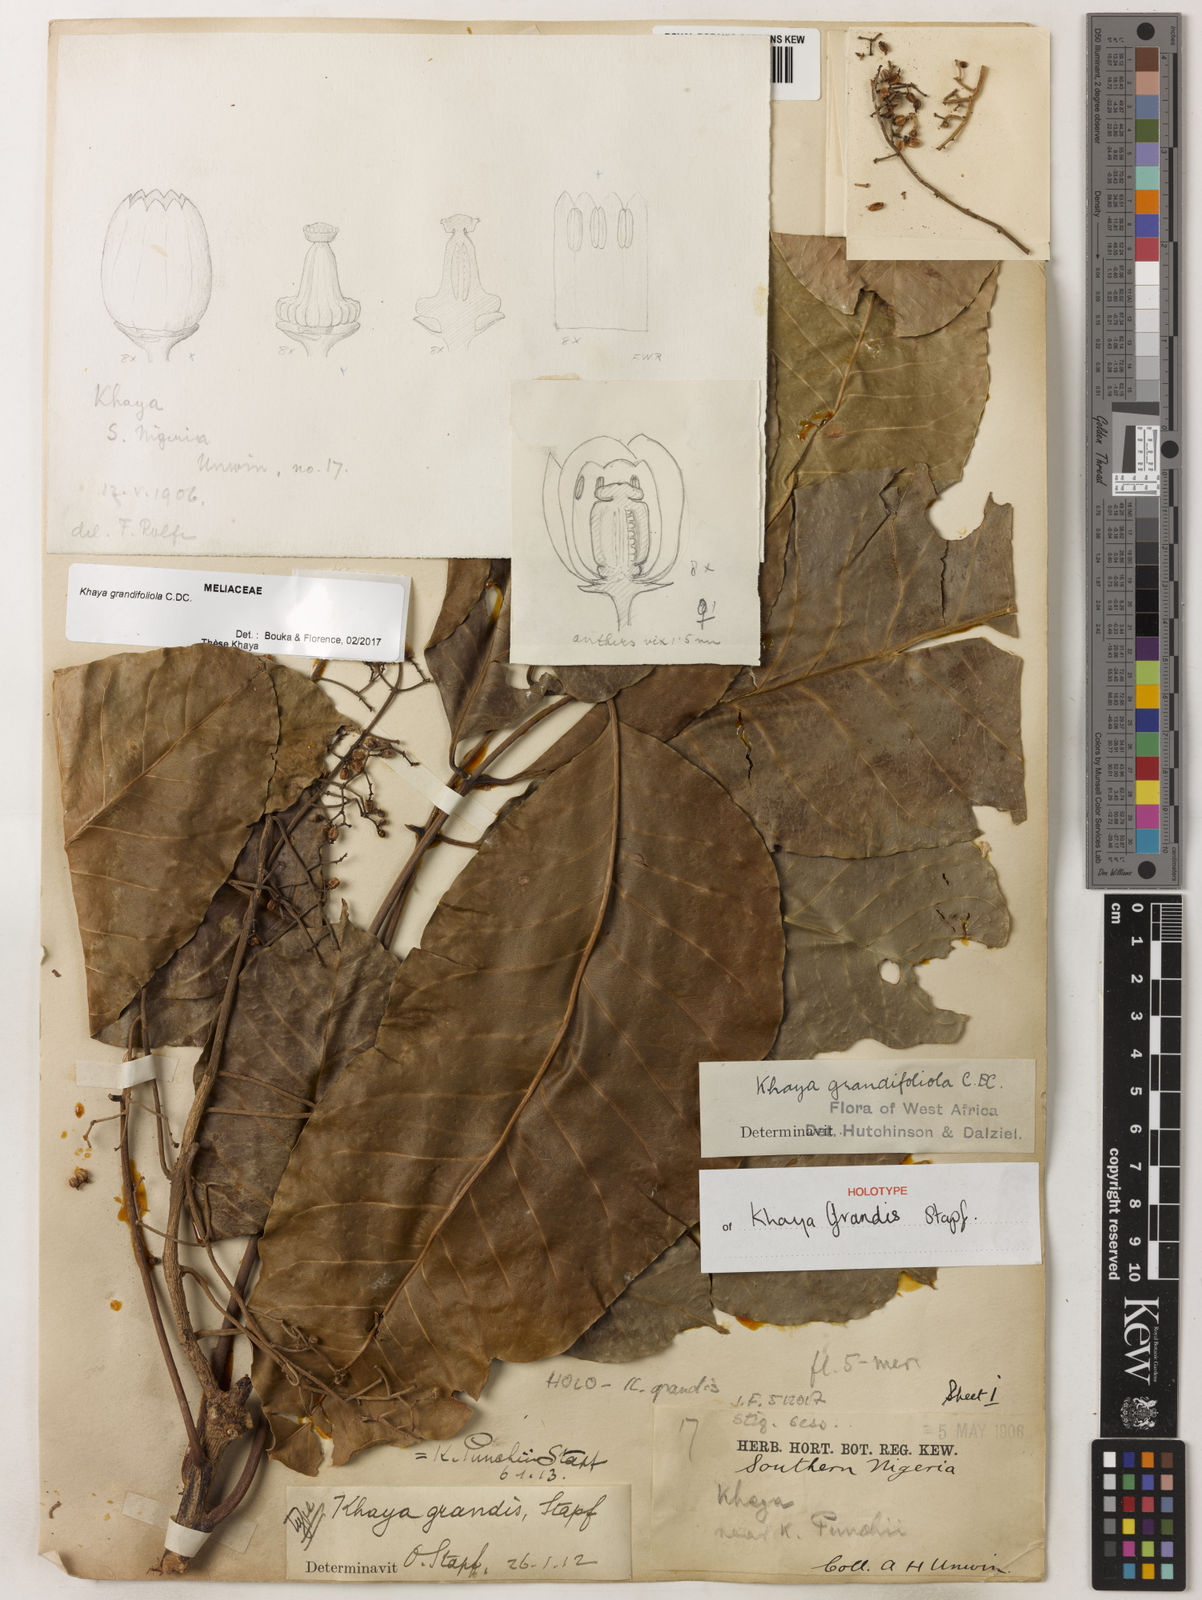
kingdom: Plantae
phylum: Tracheophyta
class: Magnoliopsida
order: Sapindales
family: Meliaceae
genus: Khaya
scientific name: Khaya
